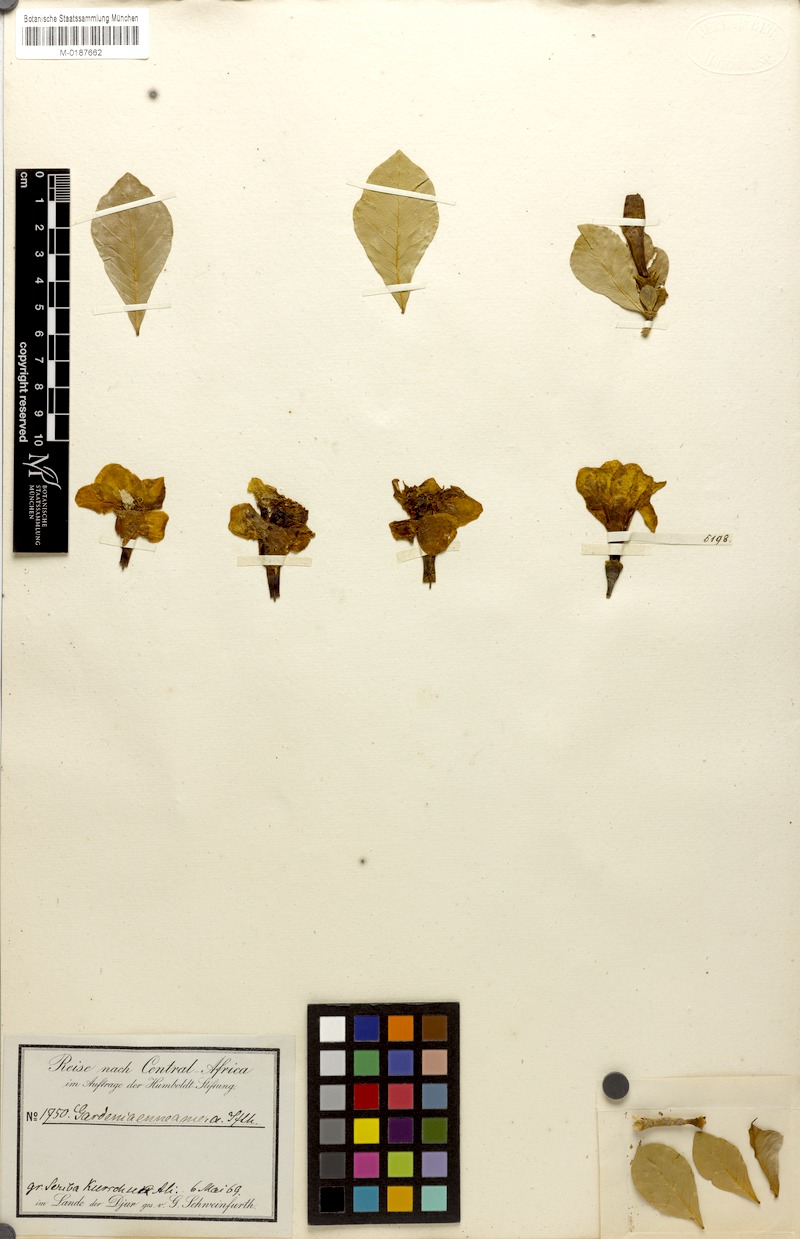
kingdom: Plantae
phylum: Tracheophyta
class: Magnoliopsida
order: Gentianales
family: Rubiaceae
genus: Gardenia
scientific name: Gardenia ternifolia
